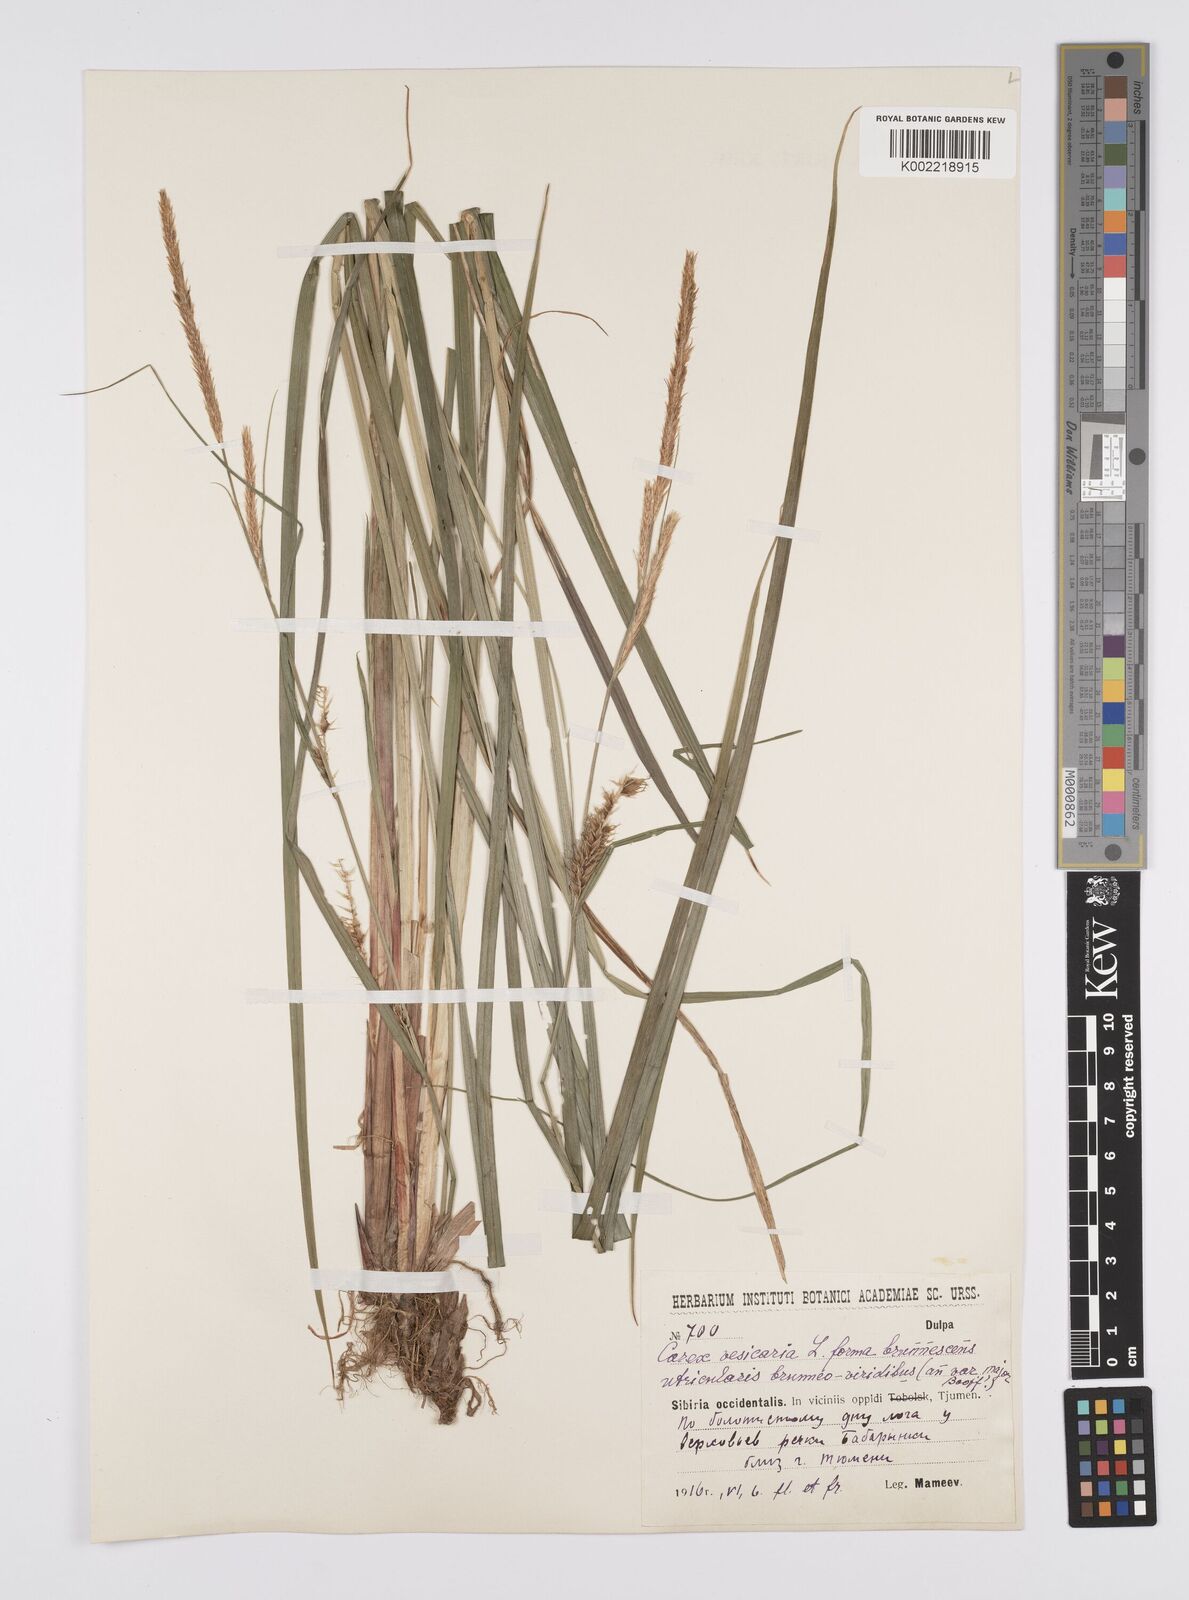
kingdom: Plantae
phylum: Tracheophyta
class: Liliopsida
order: Poales
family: Cyperaceae
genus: Carex
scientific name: Carex vesicaria
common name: Bladder-sedge
